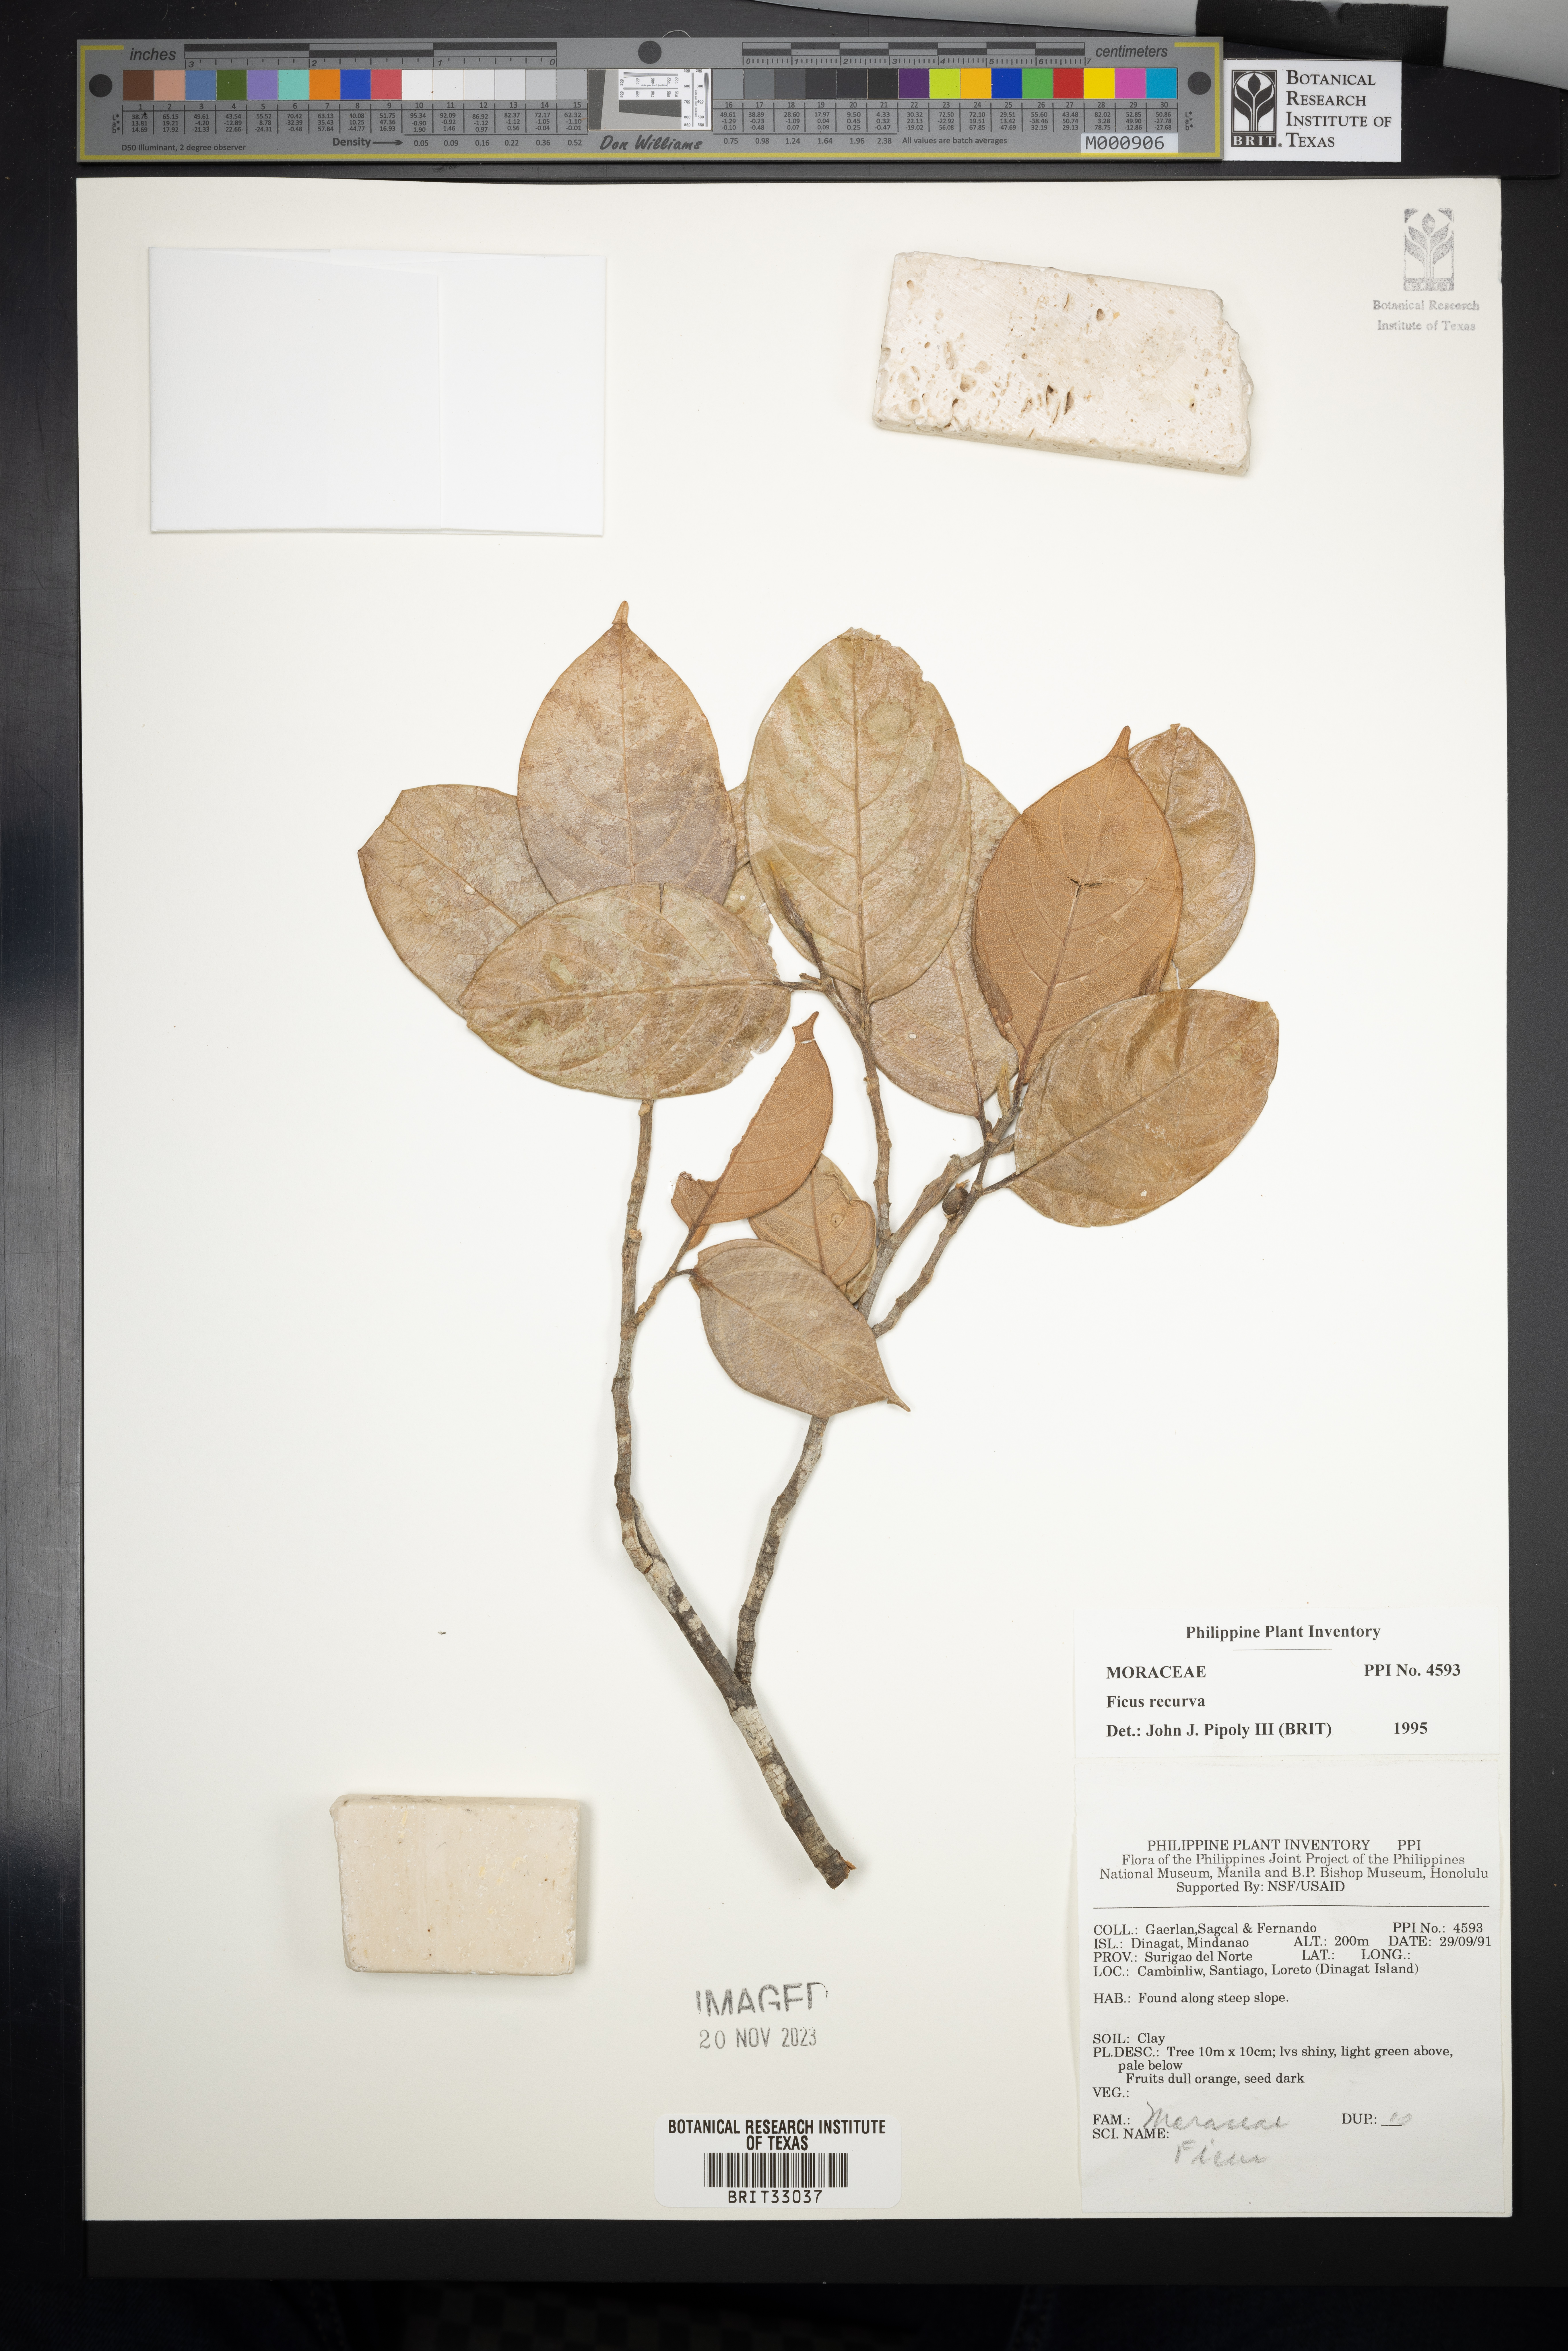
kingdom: Plantae
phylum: Tracheophyta
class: Magnoliopsida
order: Rosales
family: Moraceae
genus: Ficus
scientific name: Ficus recurva
